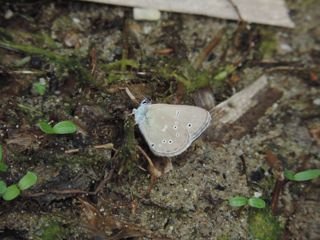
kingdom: Animalia
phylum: Arthropoda
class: Insecta
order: Lepidoptera
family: Lycaenidae
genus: Glaucopsyche
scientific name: Glaucopsyche lygdamus
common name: Silvery Blue
